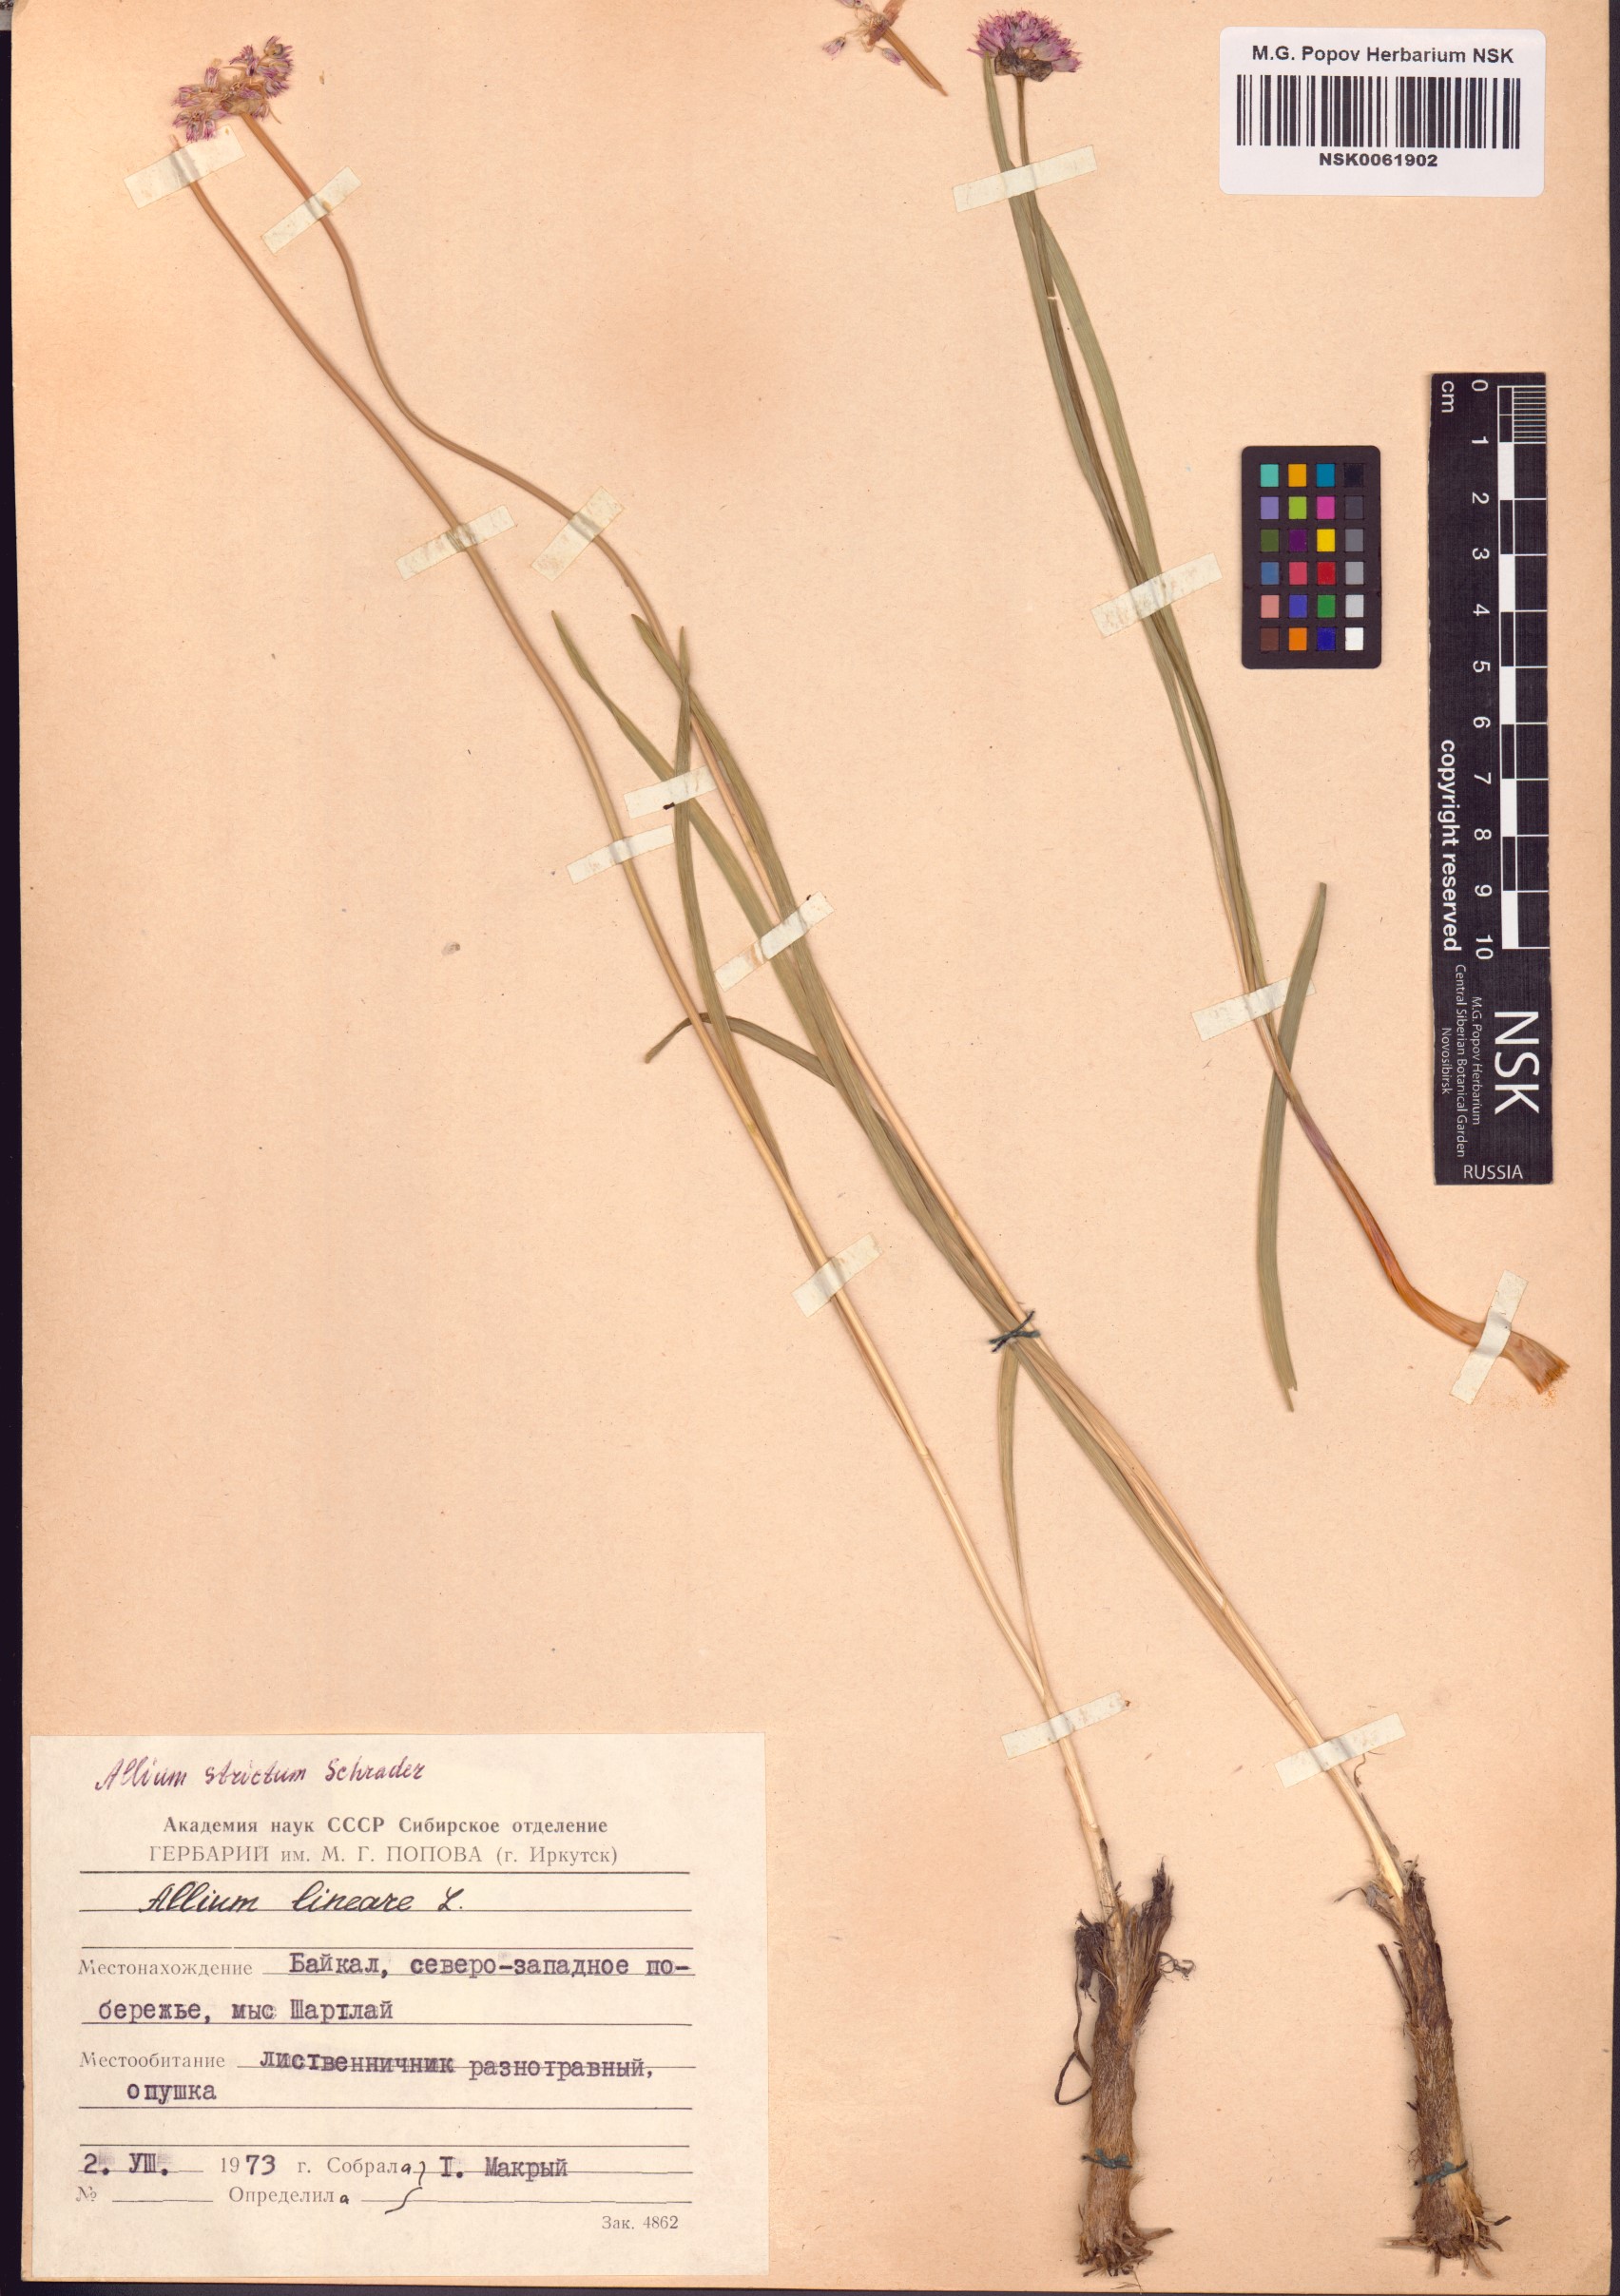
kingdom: Plantae
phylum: Tracheophyta
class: Liliopsida
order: Asparagales
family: Amaryllidaceae
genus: Allium
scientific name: Allium strictum
